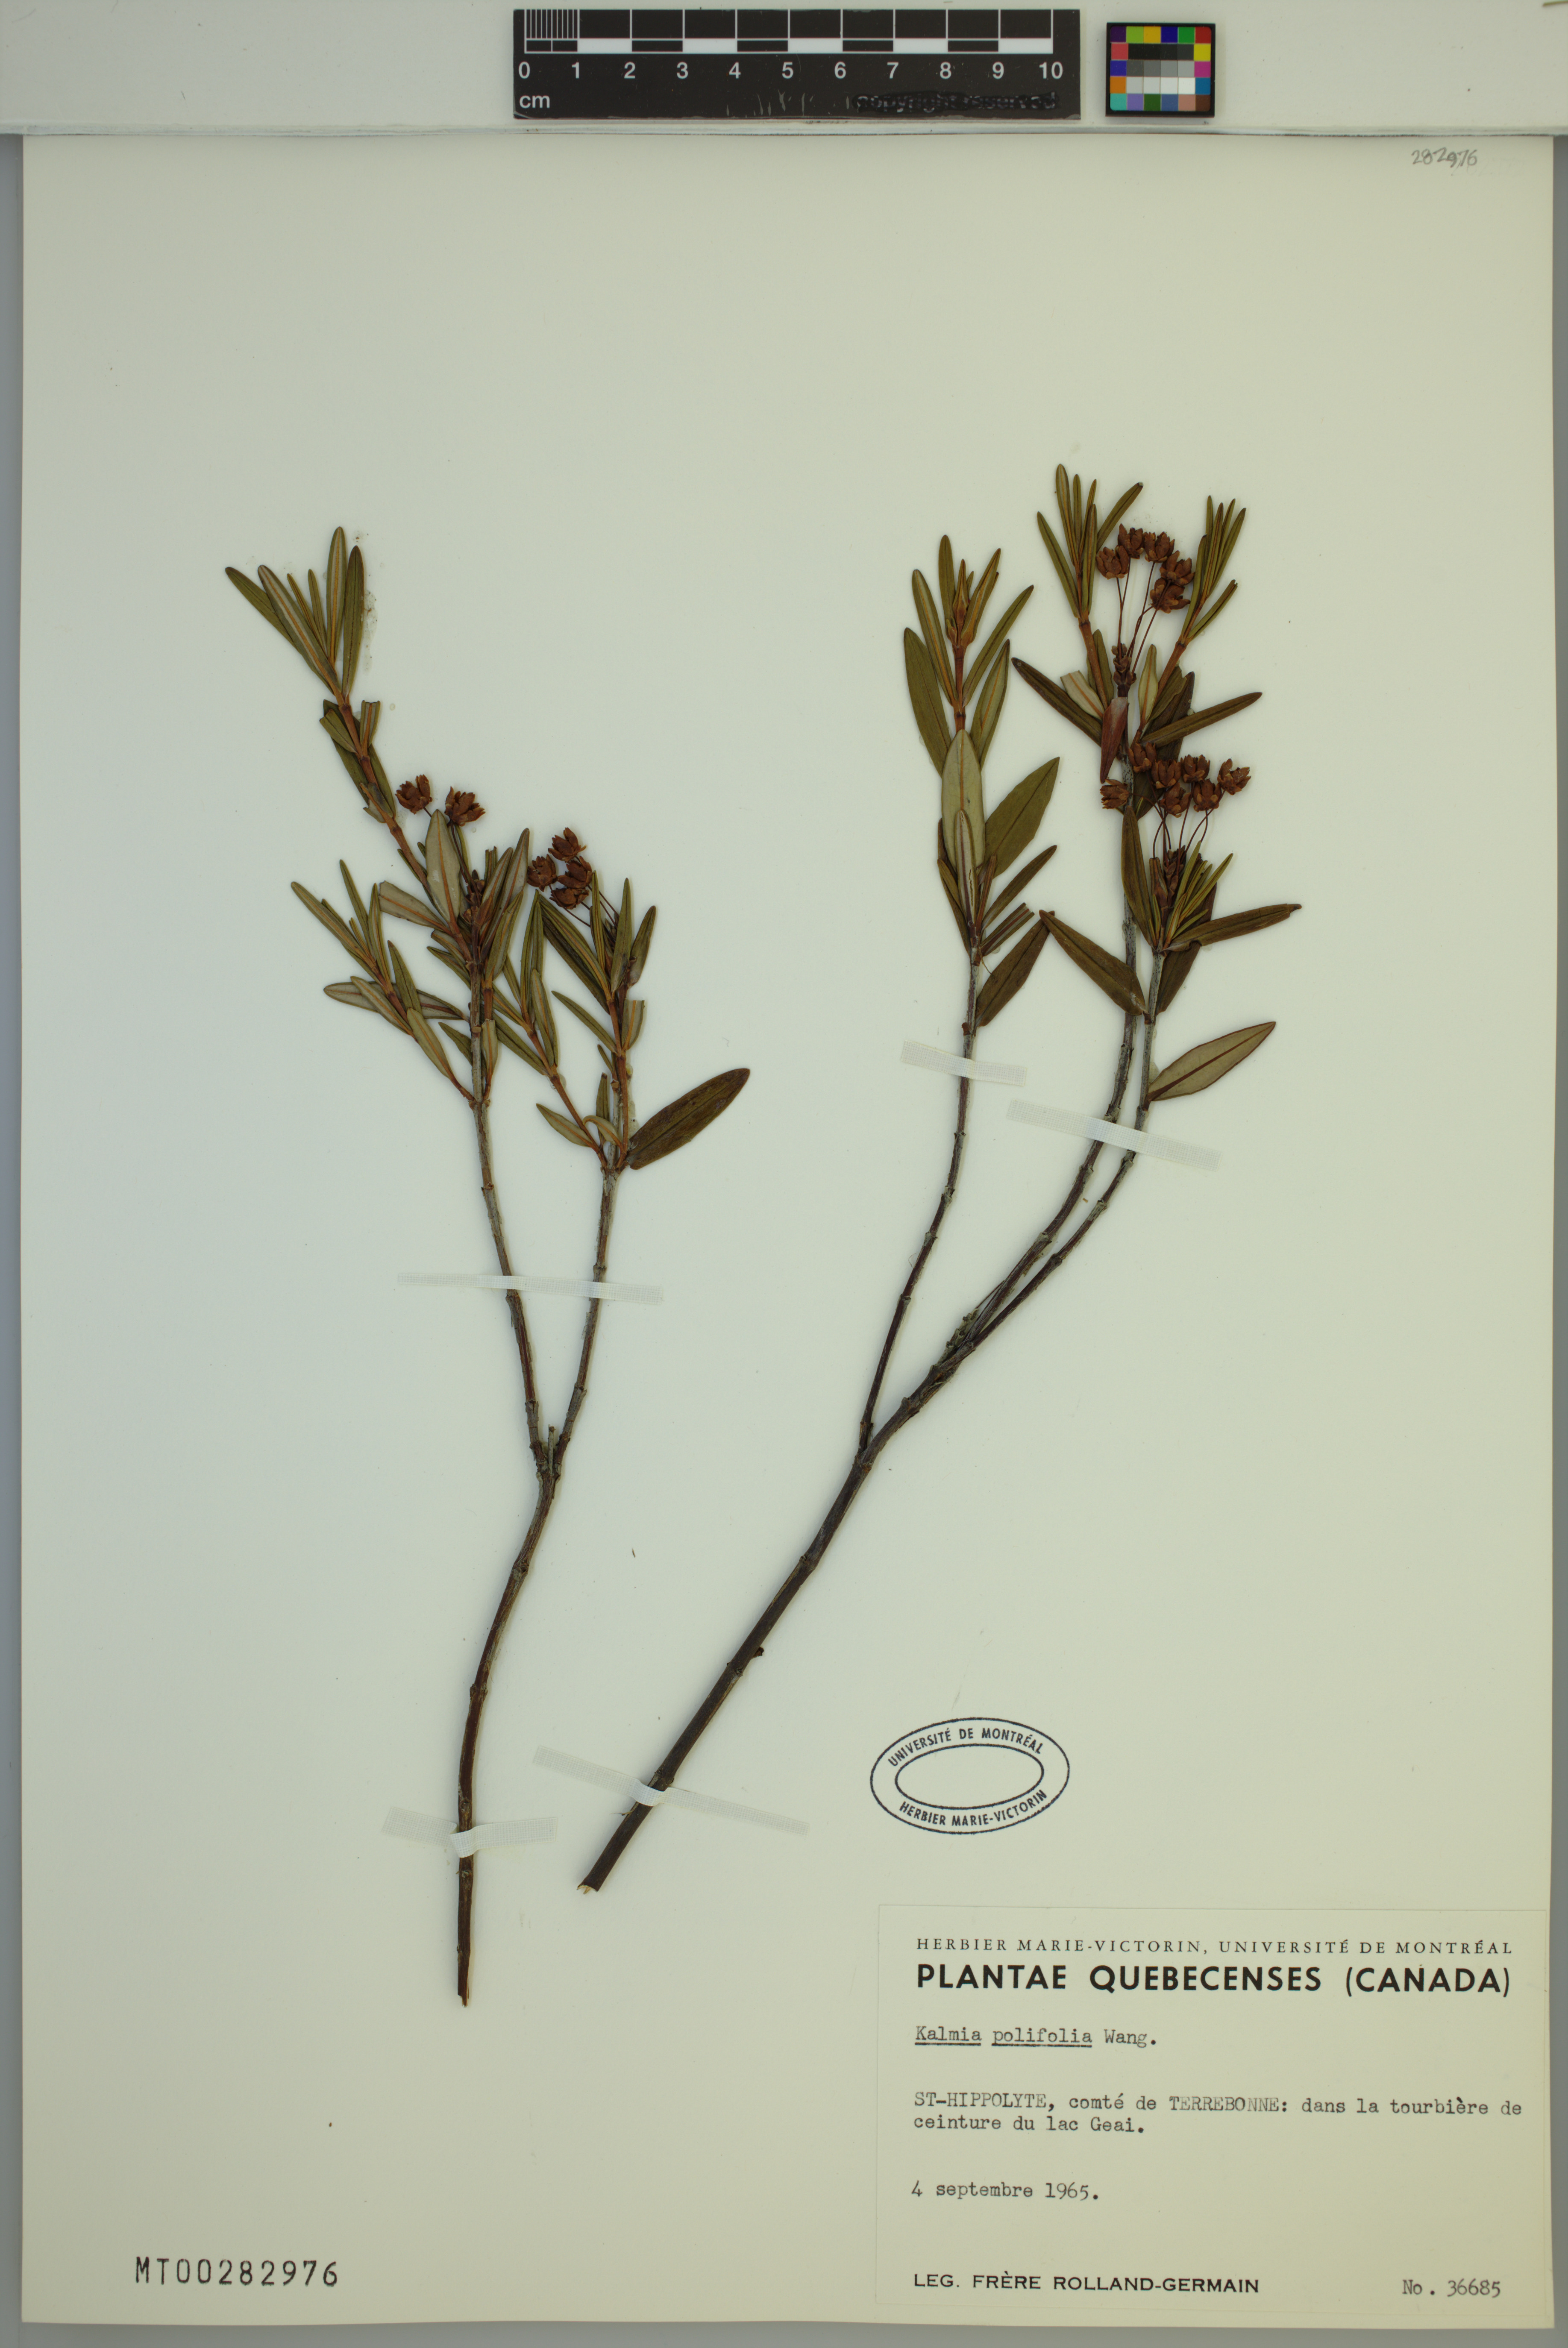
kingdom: Plantae
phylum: Tracheophyta
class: Magnoliopsida
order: Ericales
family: Ericaceae
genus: Kalmia
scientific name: Kalmia polifolia
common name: Bog-laurel
